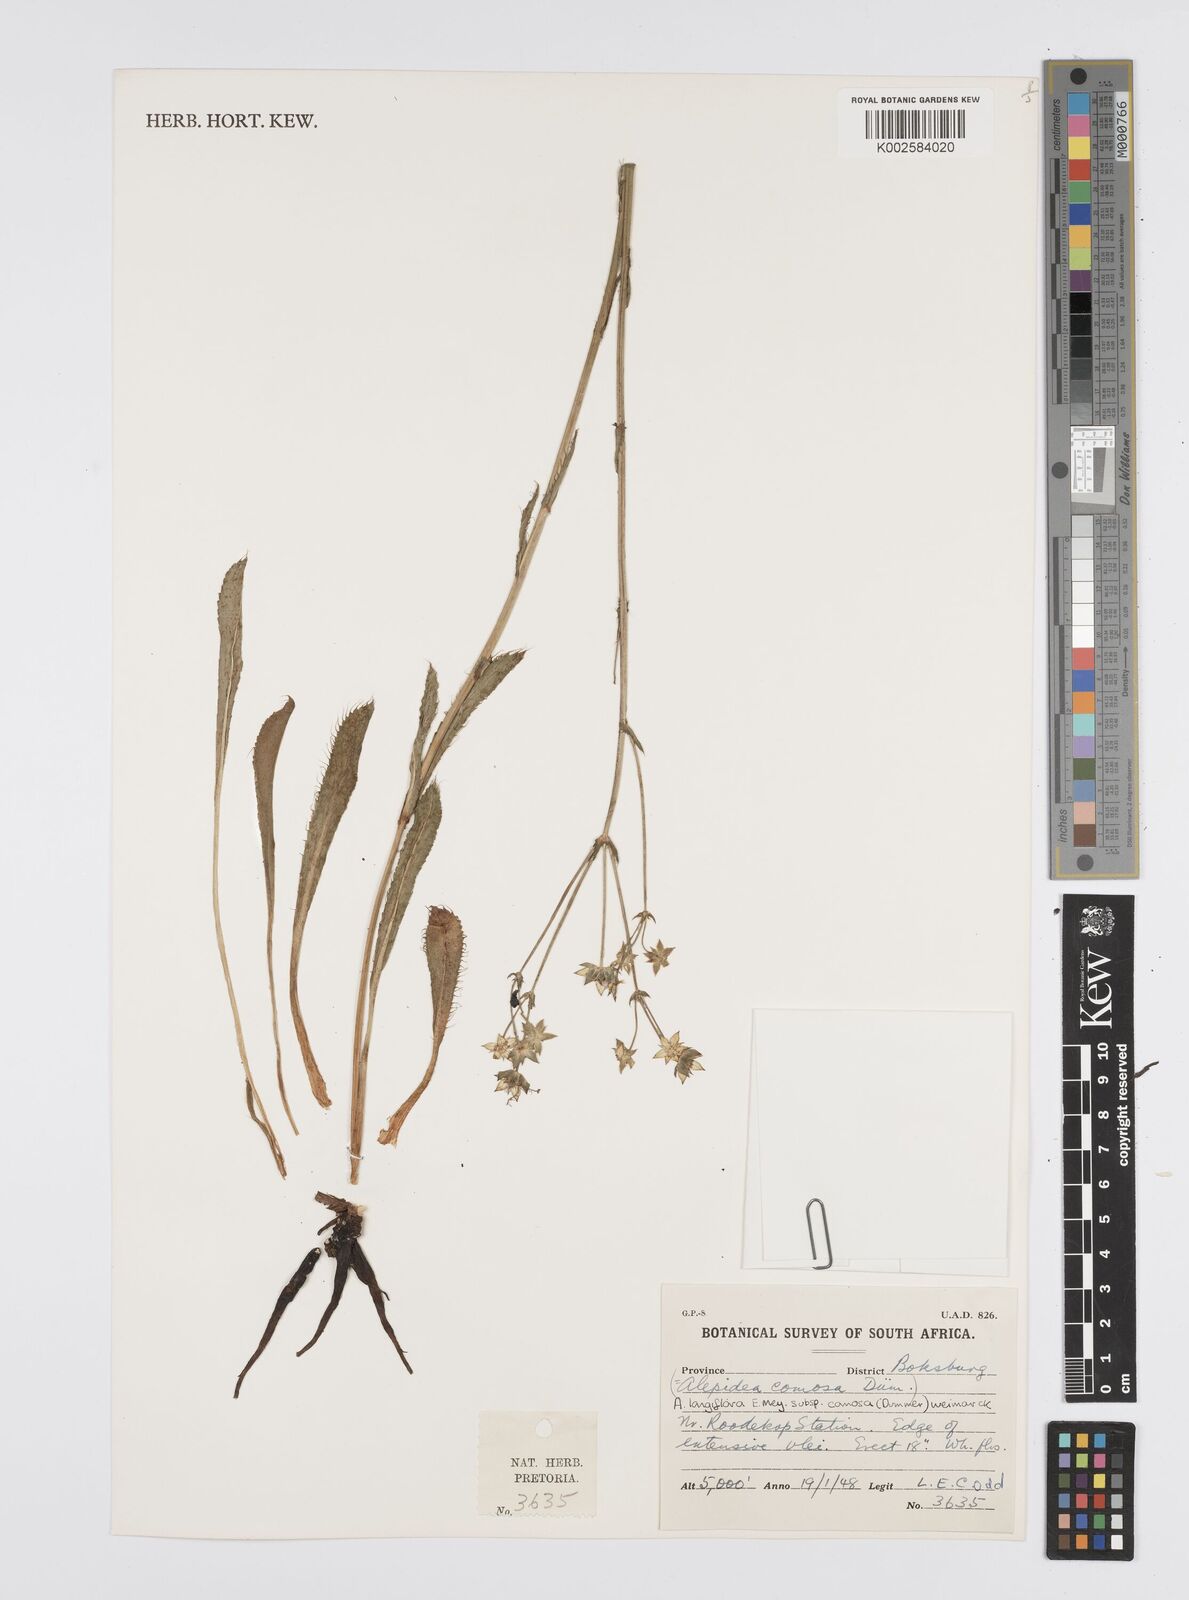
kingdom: Plantae
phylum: Tracheophyta
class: Magnoliopsida
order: Apiales
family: Apiaceae
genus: Alepidea
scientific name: Alepidea
